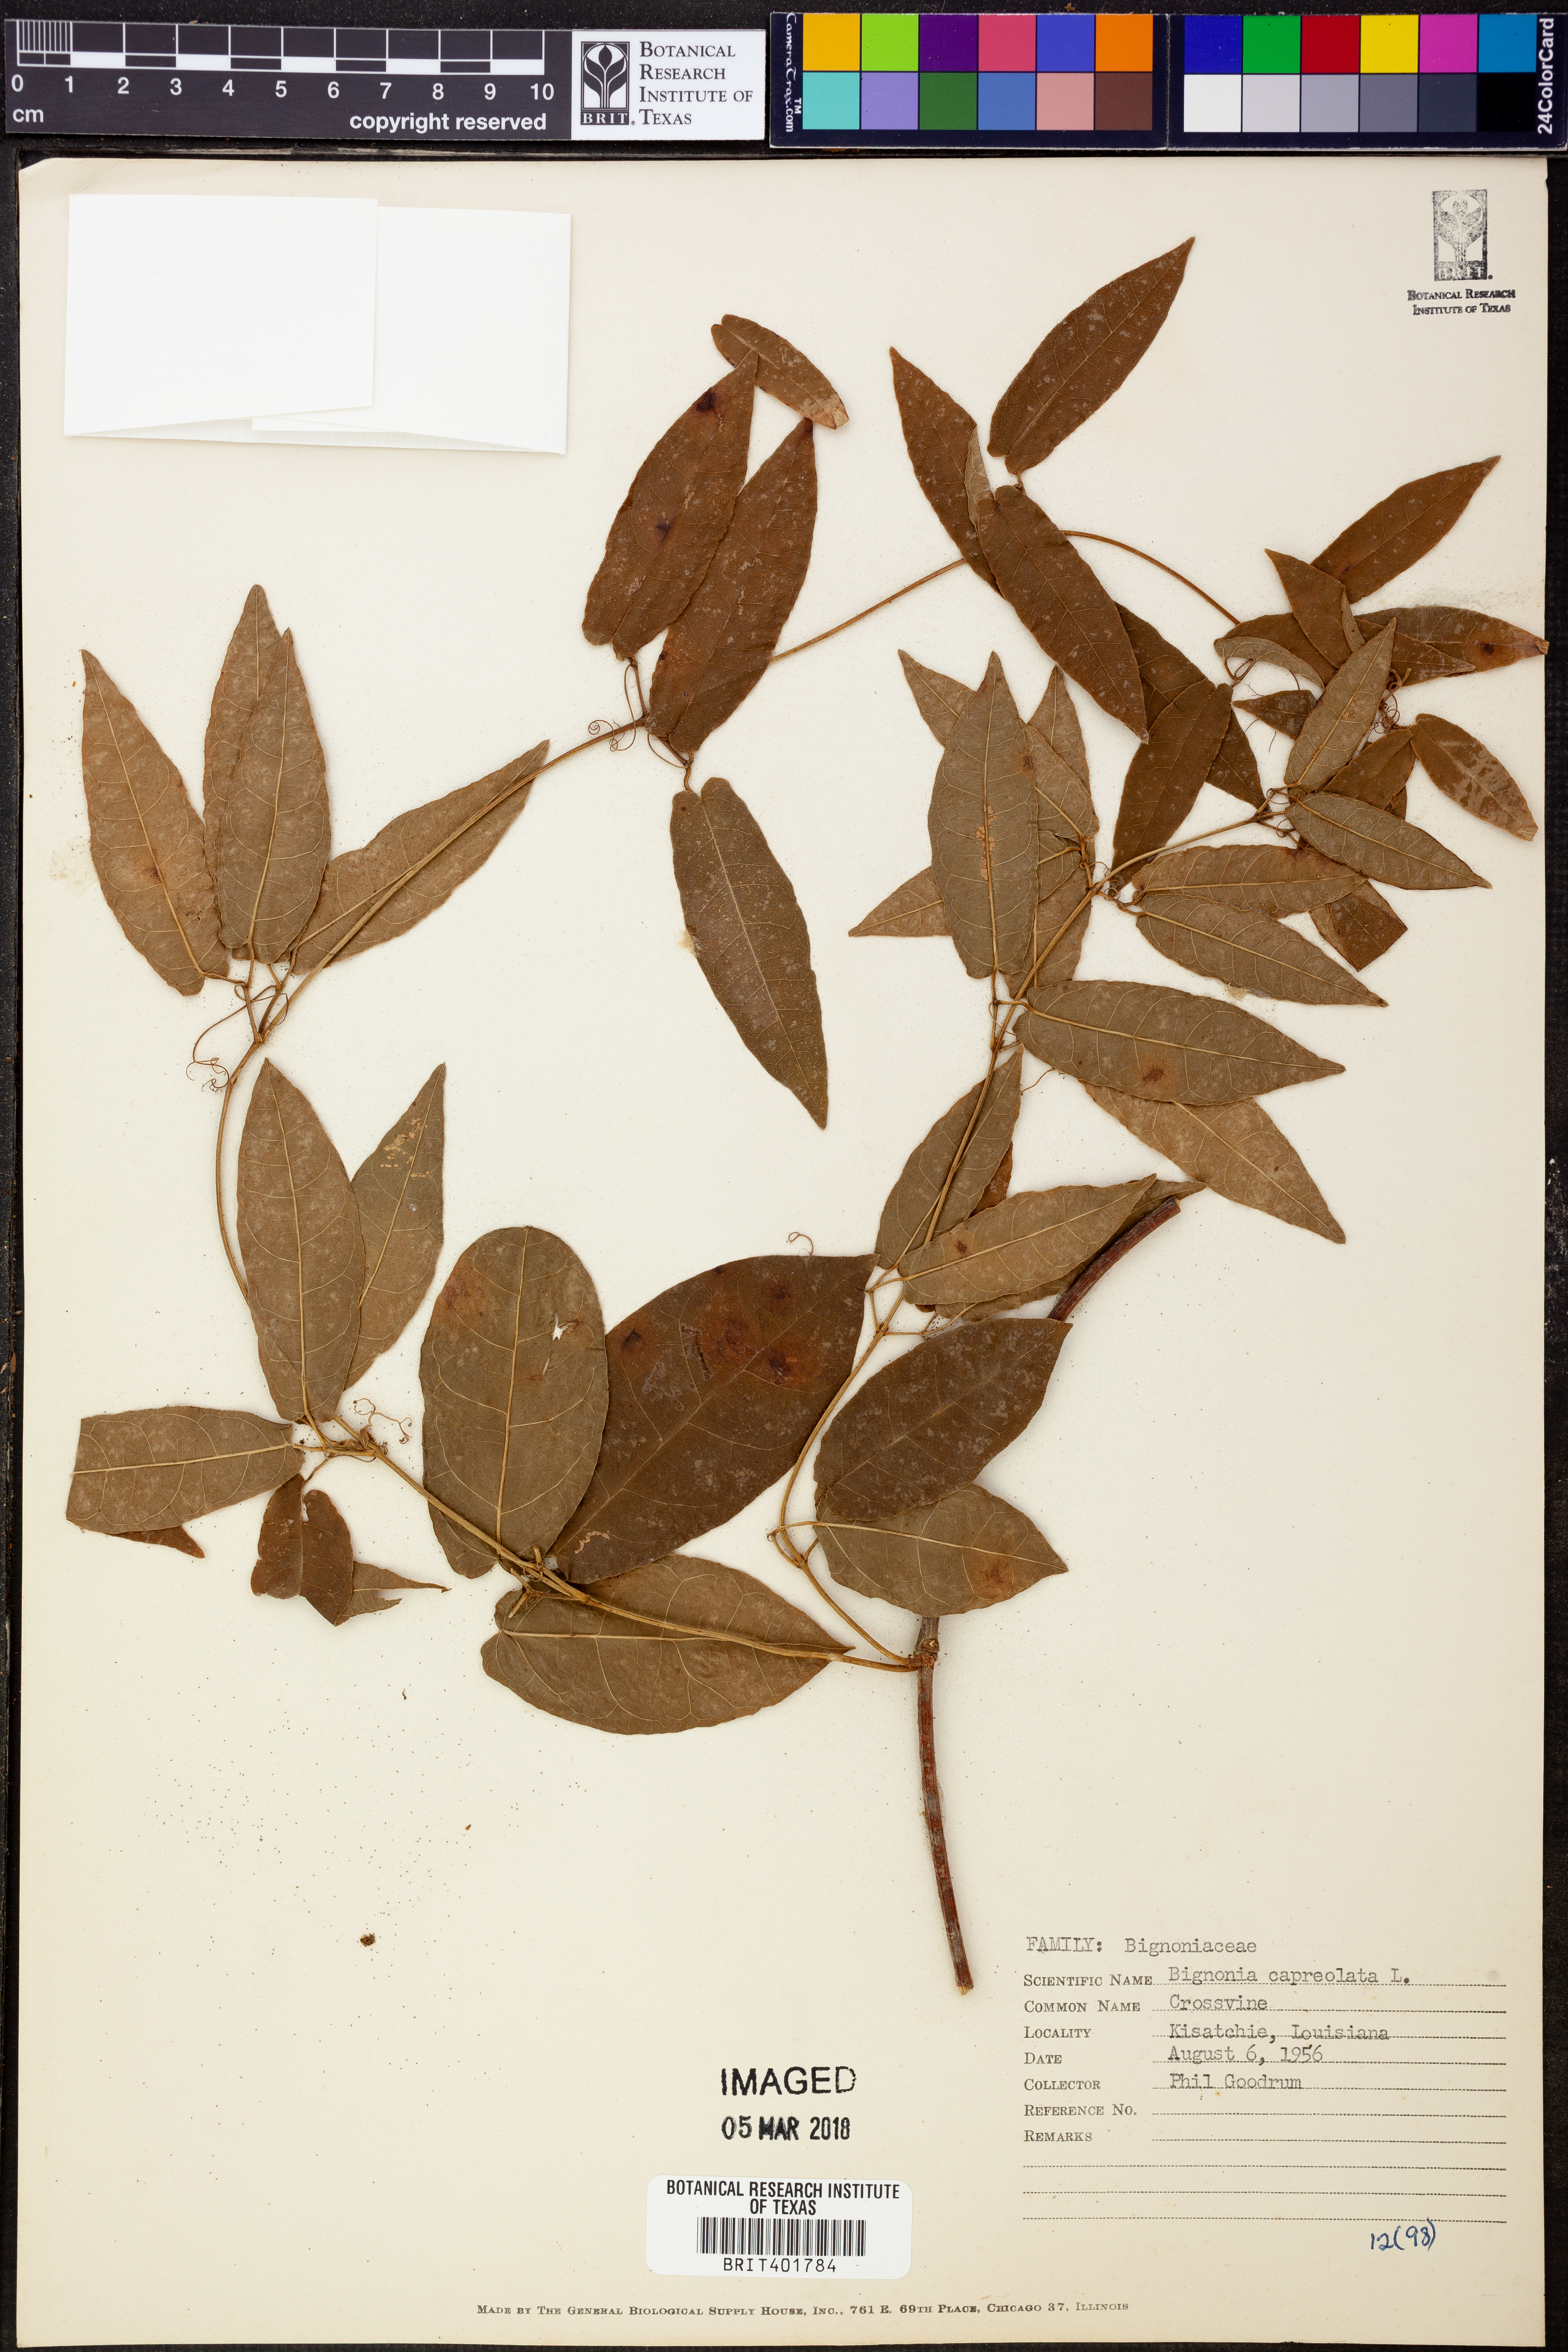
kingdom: Plantae
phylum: Tracheophyta
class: Magnoliopsida
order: Lamiales
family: Bignoniaceae
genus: Bignonia
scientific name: Bignonia capreolata
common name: Crossvine
